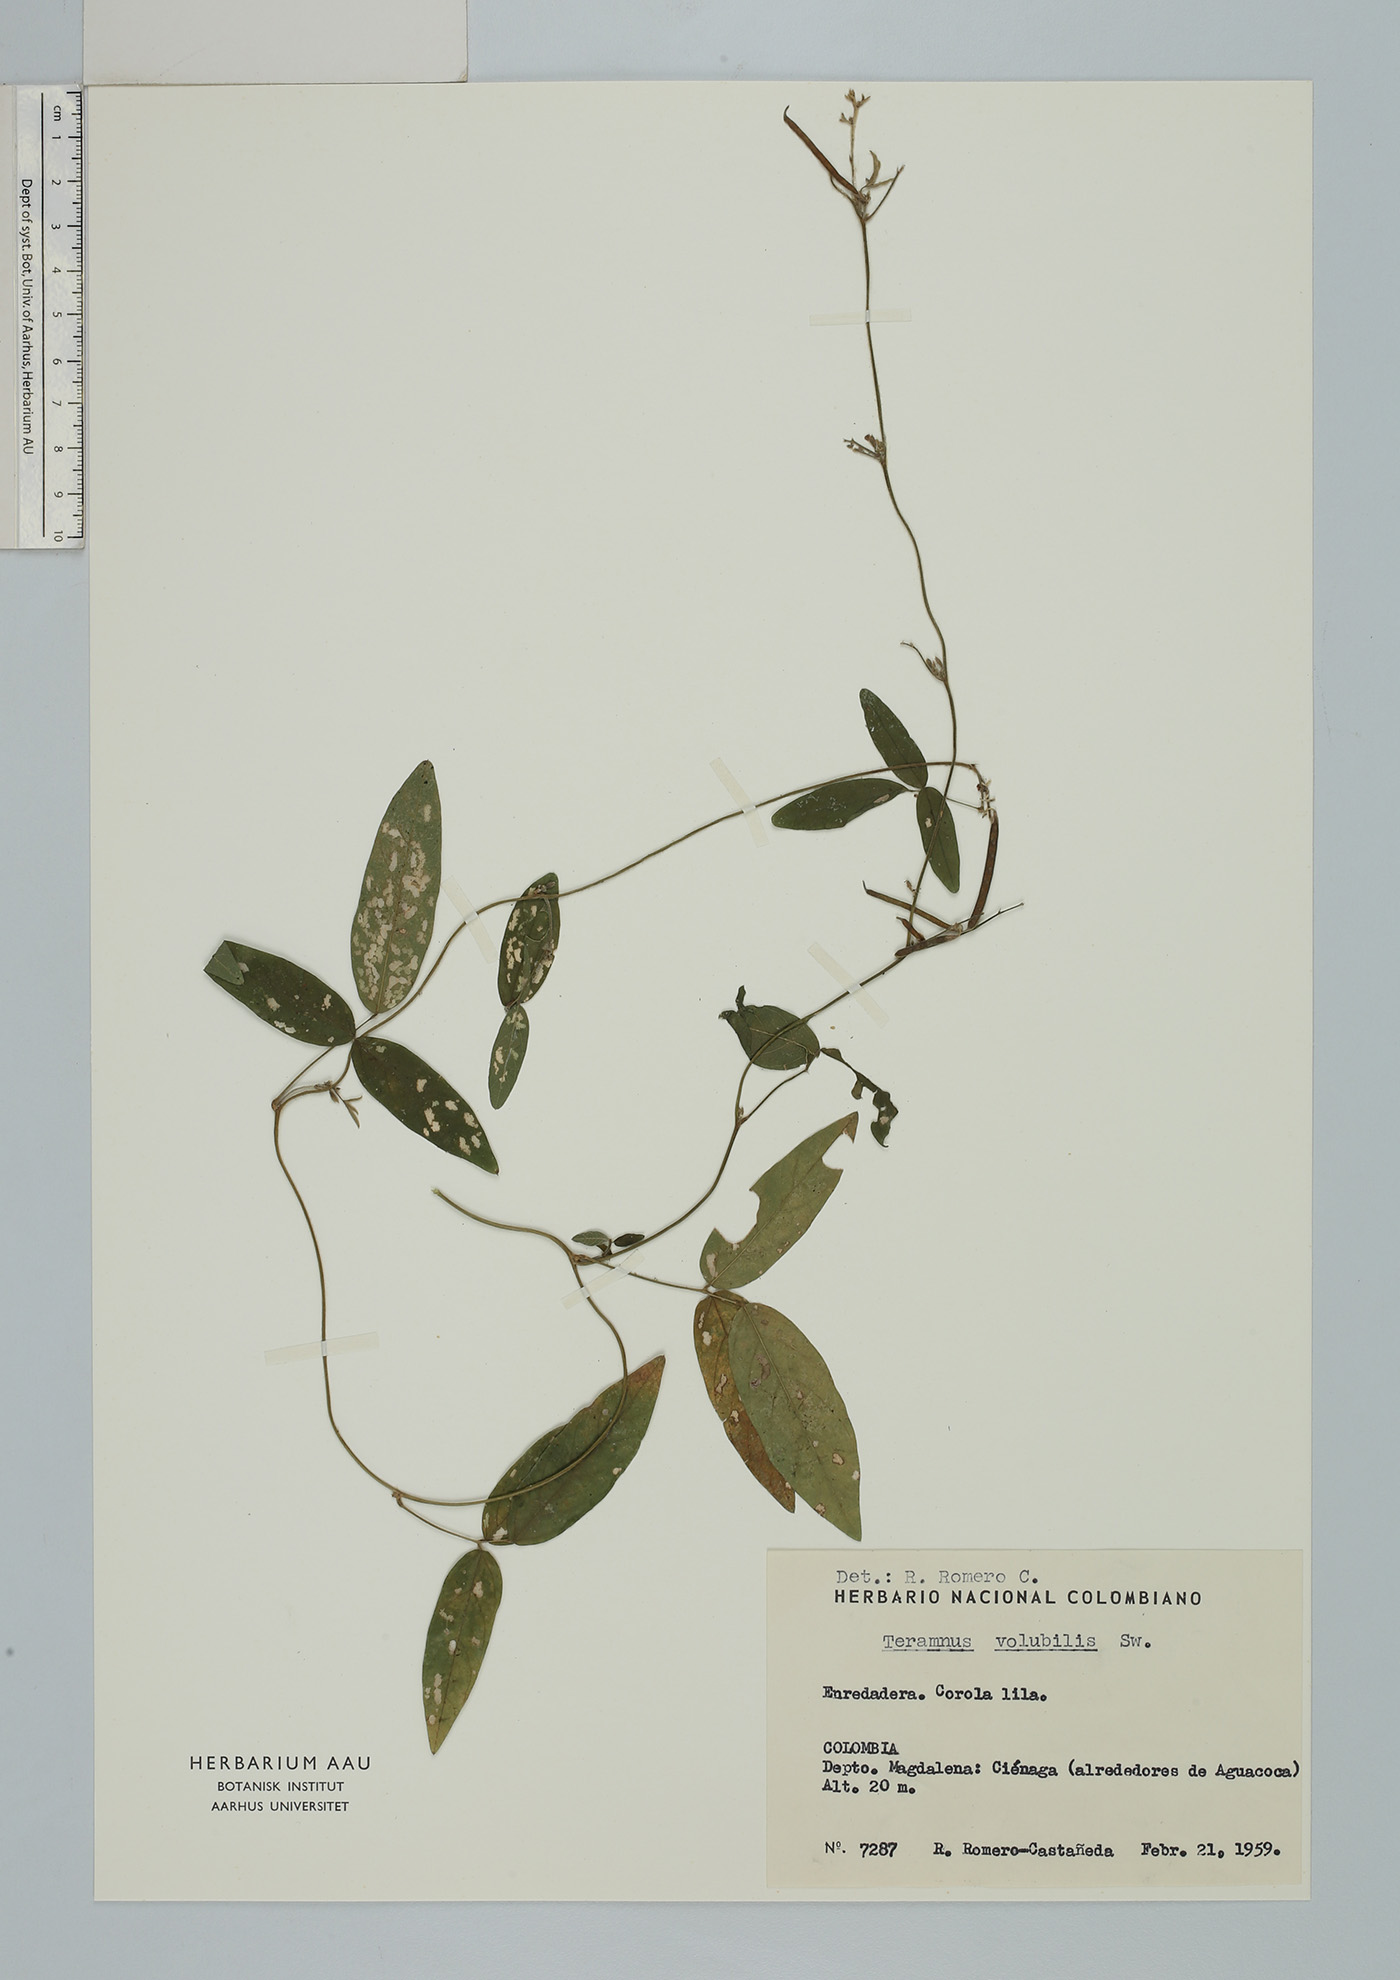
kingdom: Plantae
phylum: Tracheophyta
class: Magnoliopsida
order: Fabales
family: Fabaceae
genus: Teramnus
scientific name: Teramnus volubilis
